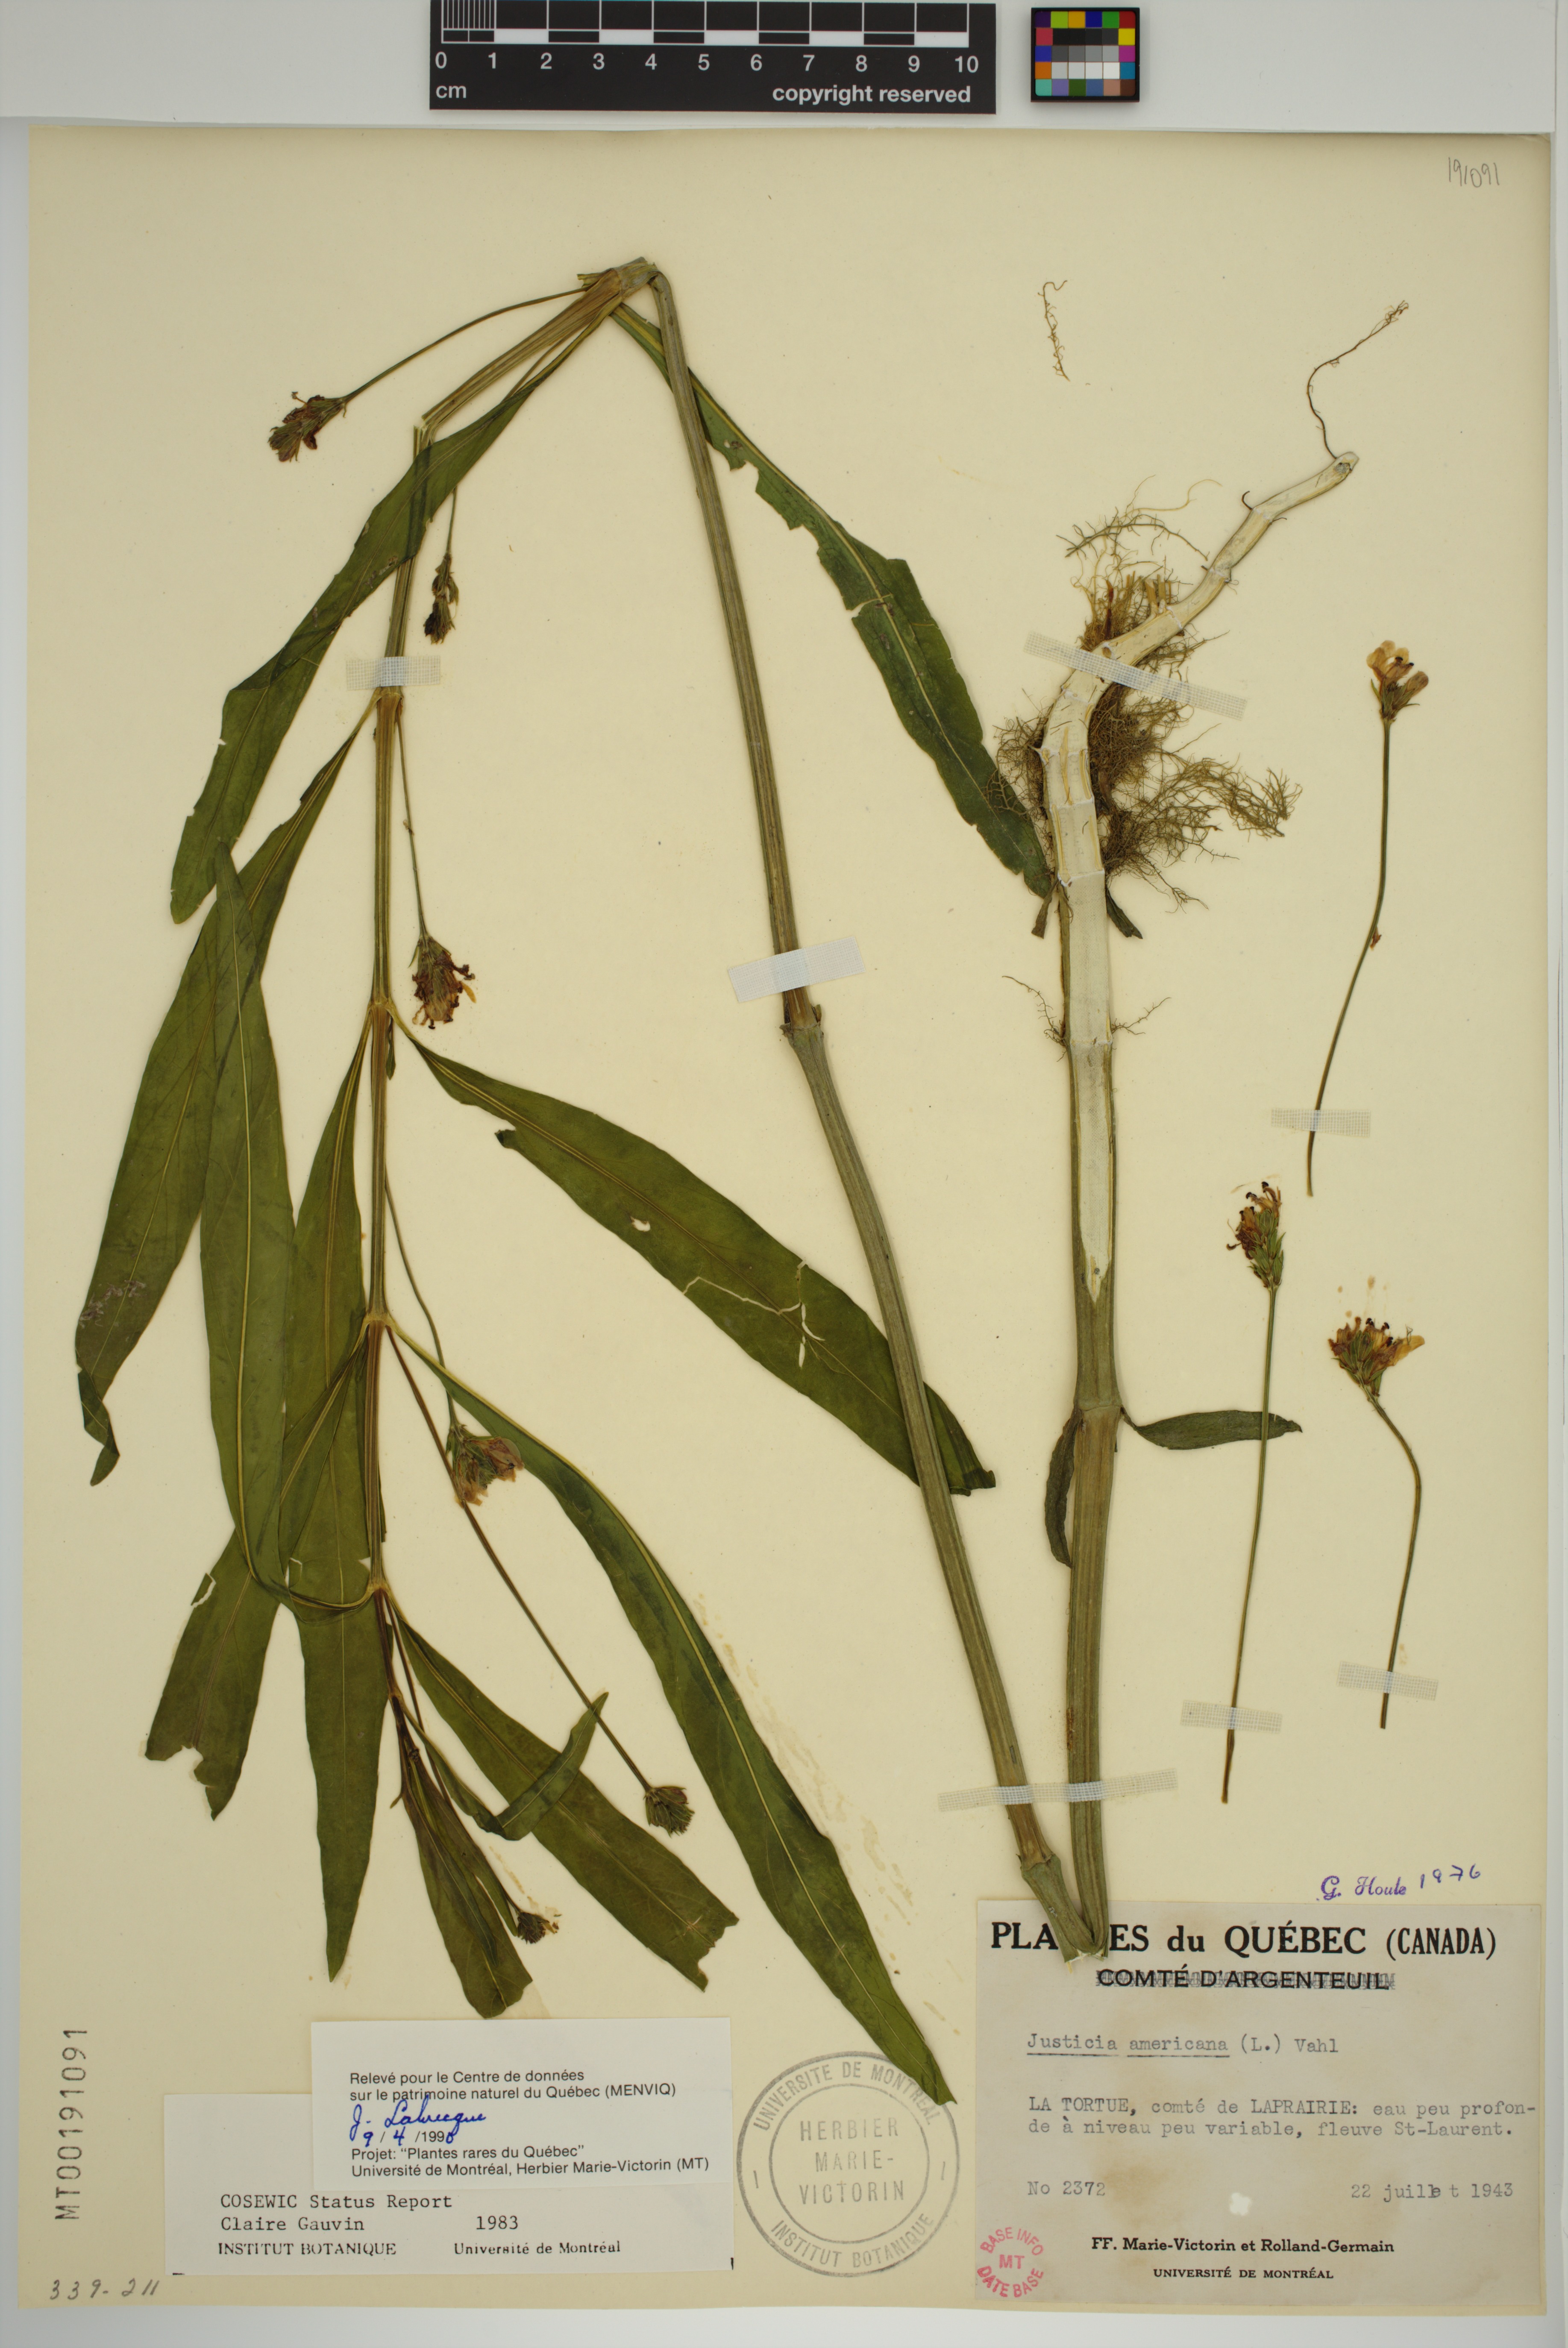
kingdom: Plantae
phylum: Tracheophyta
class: Magnoliopsida
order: Lamiales
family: Acanthaceae
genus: Dianthera
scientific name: Dianthera americana
